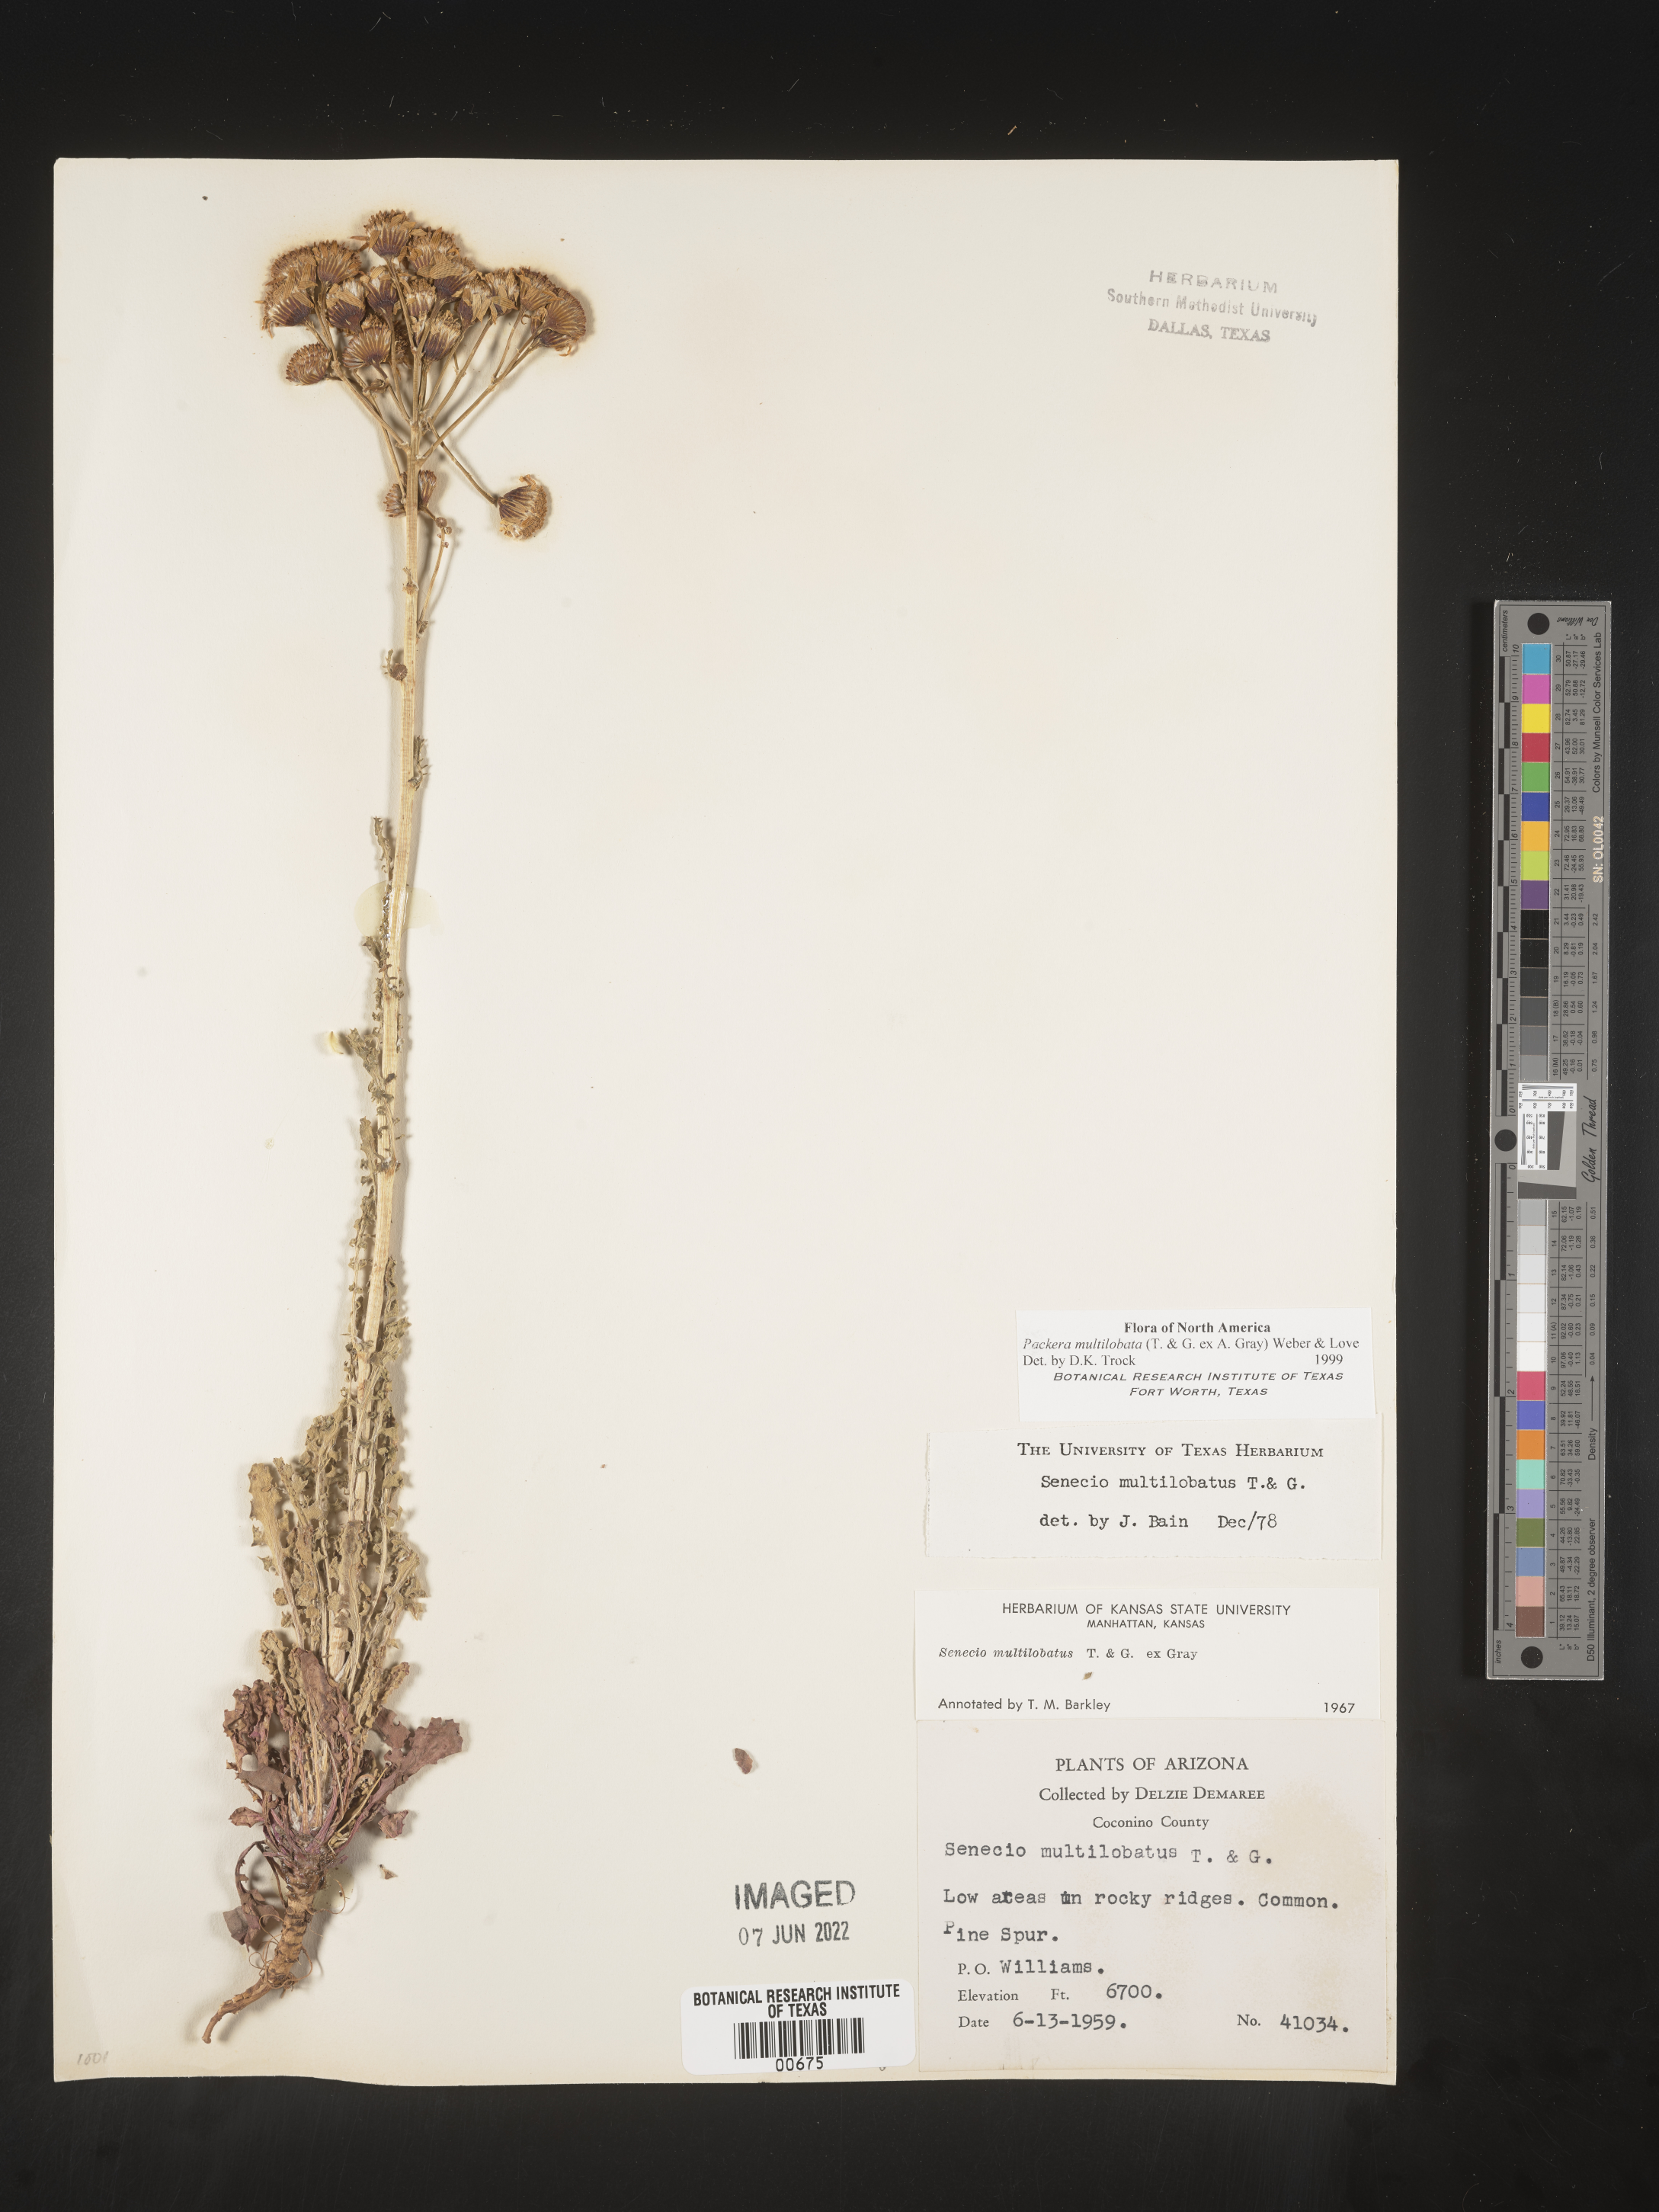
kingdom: Plantae
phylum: Tracheophyta
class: Magnoliopsida
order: Asterales
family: Asteraceae
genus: Packera
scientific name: Packera multilobata
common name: Lobe-leaf groundsel
